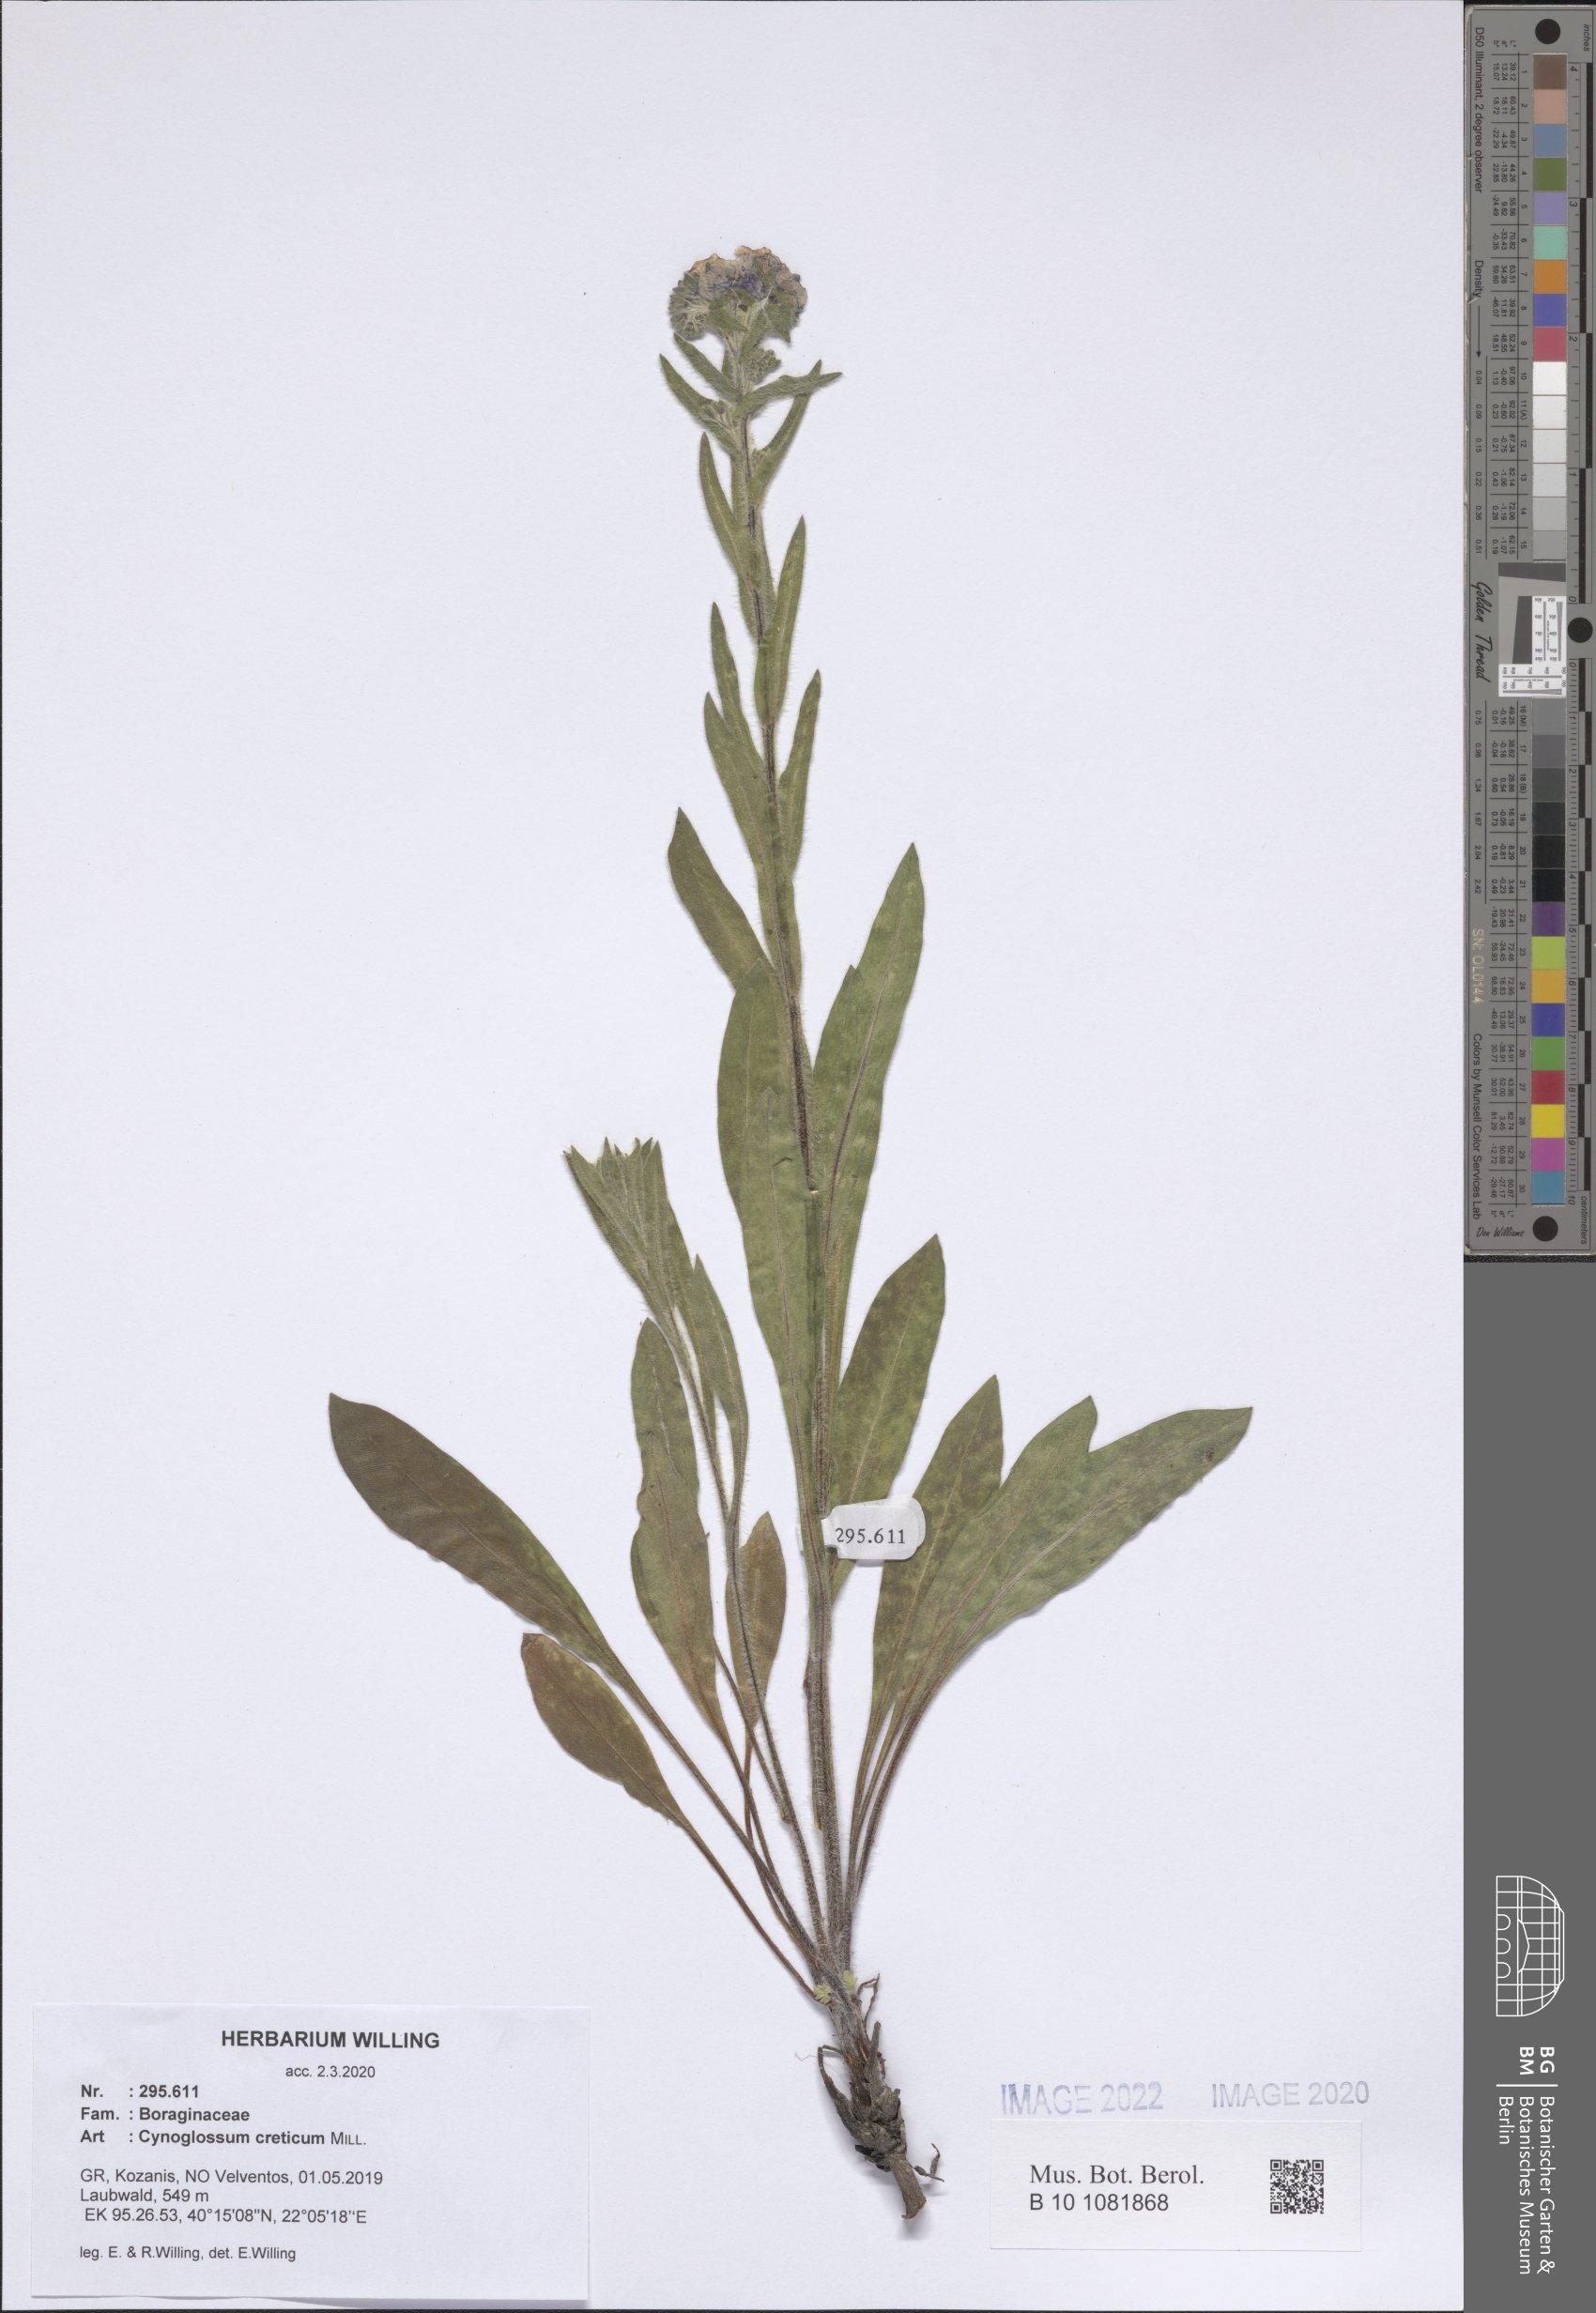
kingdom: Plantae
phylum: Tracheophyta
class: Magnoliopsida
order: Boraginales
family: Boraginaceae
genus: Cynoglossum
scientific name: Cynoglossum creticum
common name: Blue hound's tongue
